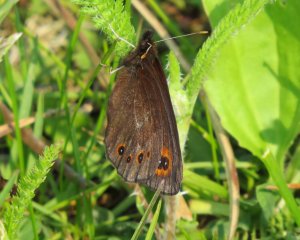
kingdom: Animalia
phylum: Arthropoda
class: Insecta
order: Lepidoptera
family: Nymphalidae
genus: Erebia
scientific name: Erebia epipsodea
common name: Common Alpine
